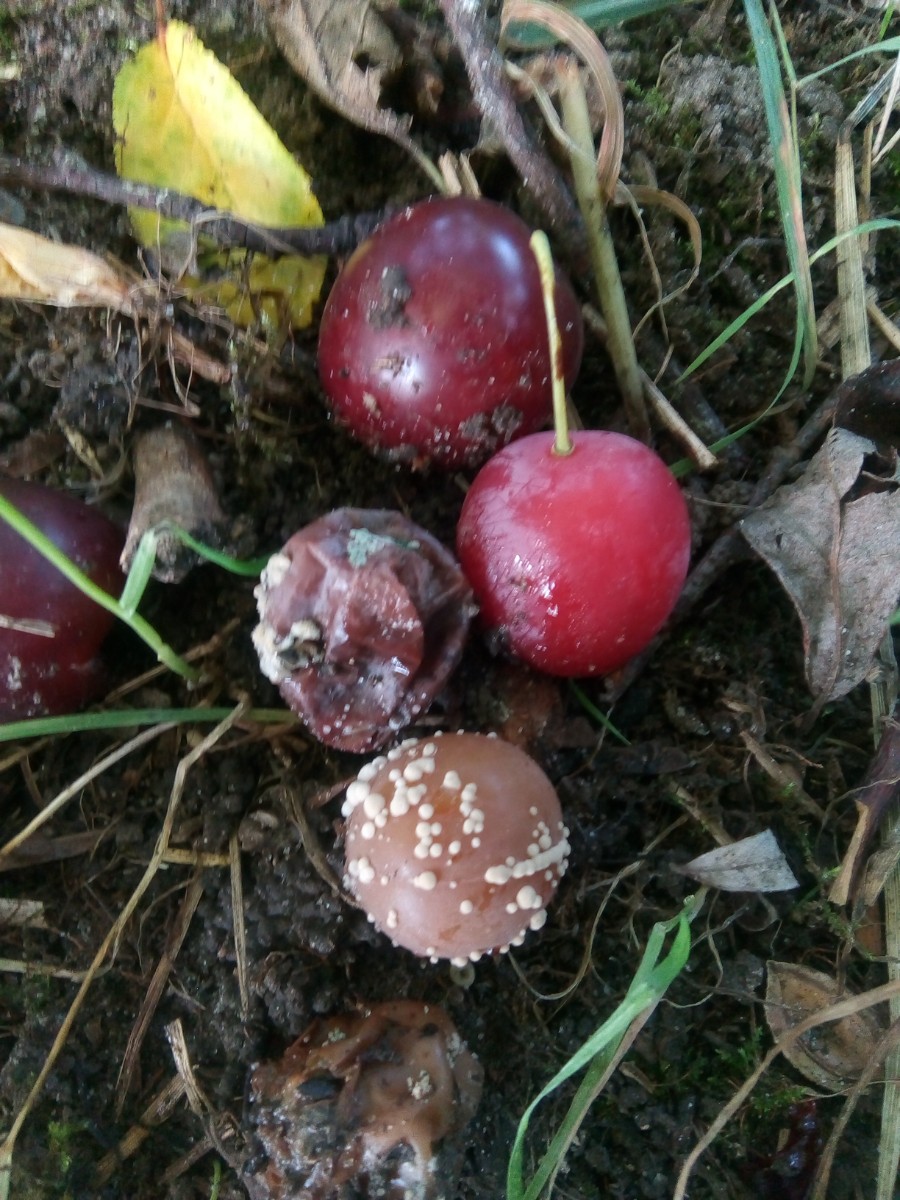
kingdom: Fungi
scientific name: Fungi
